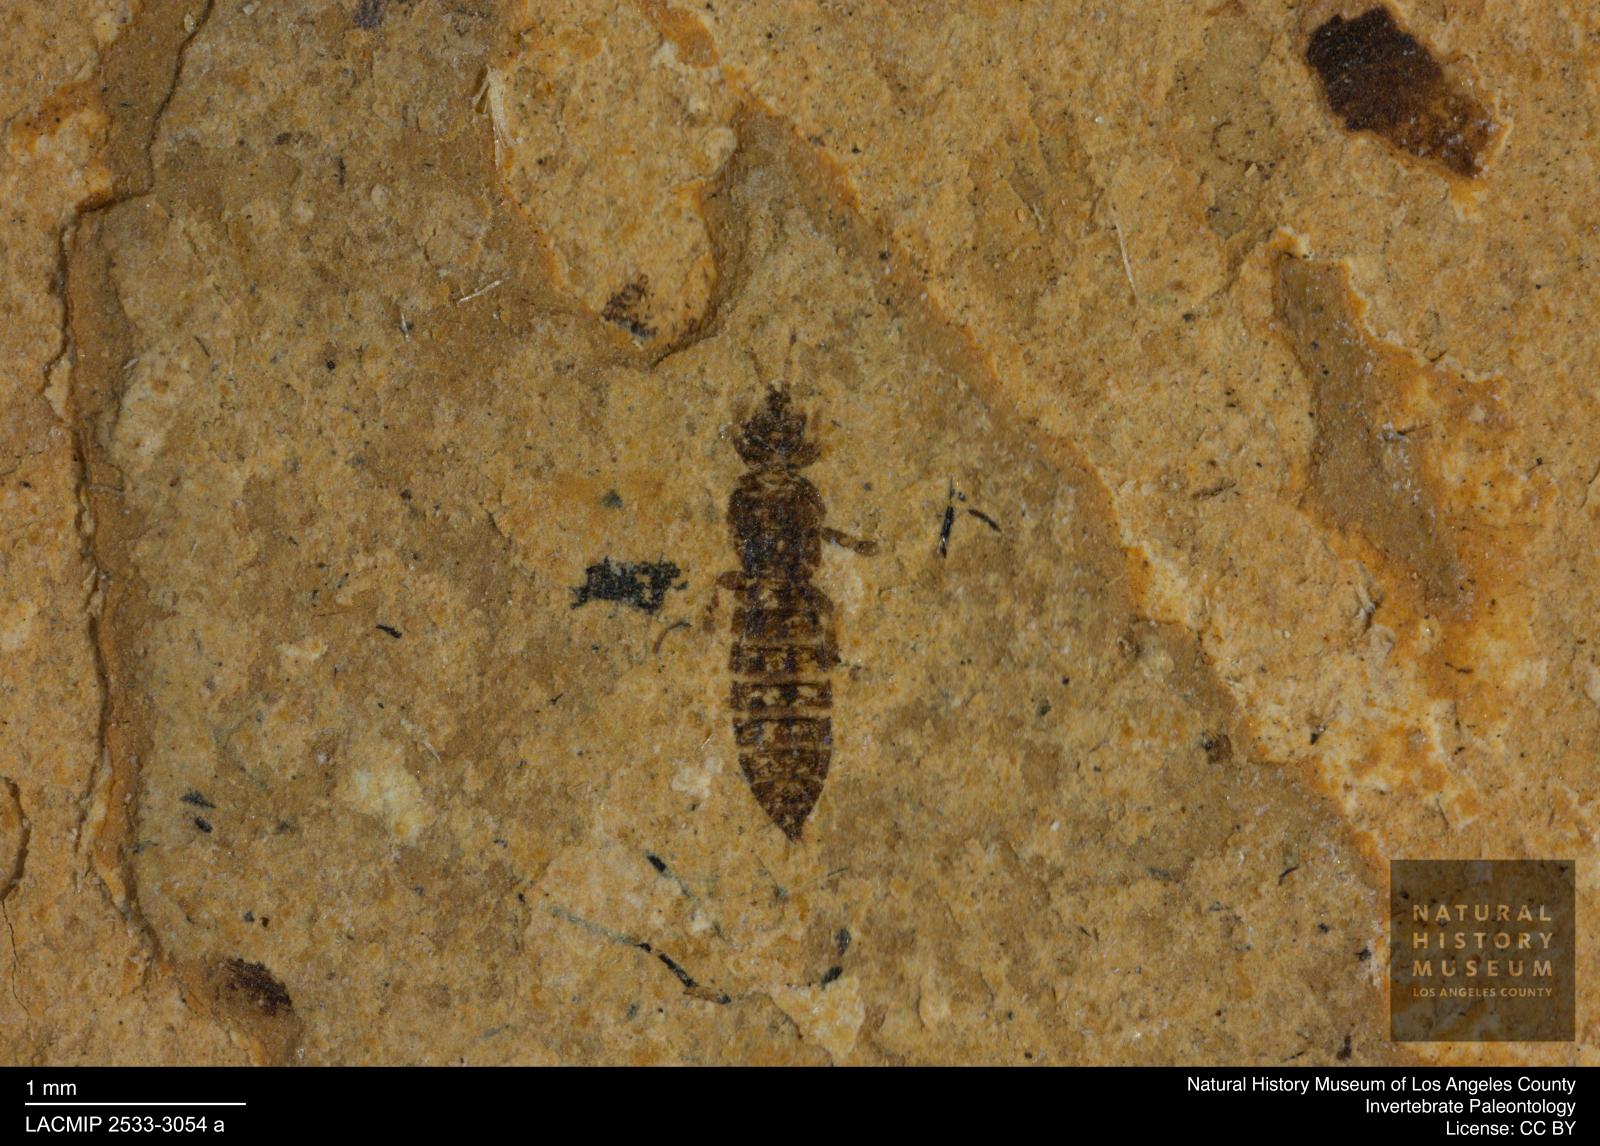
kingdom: Animalia
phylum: Arthropoda
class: Insecta
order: Thysanoptera
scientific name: Thysanoptera
